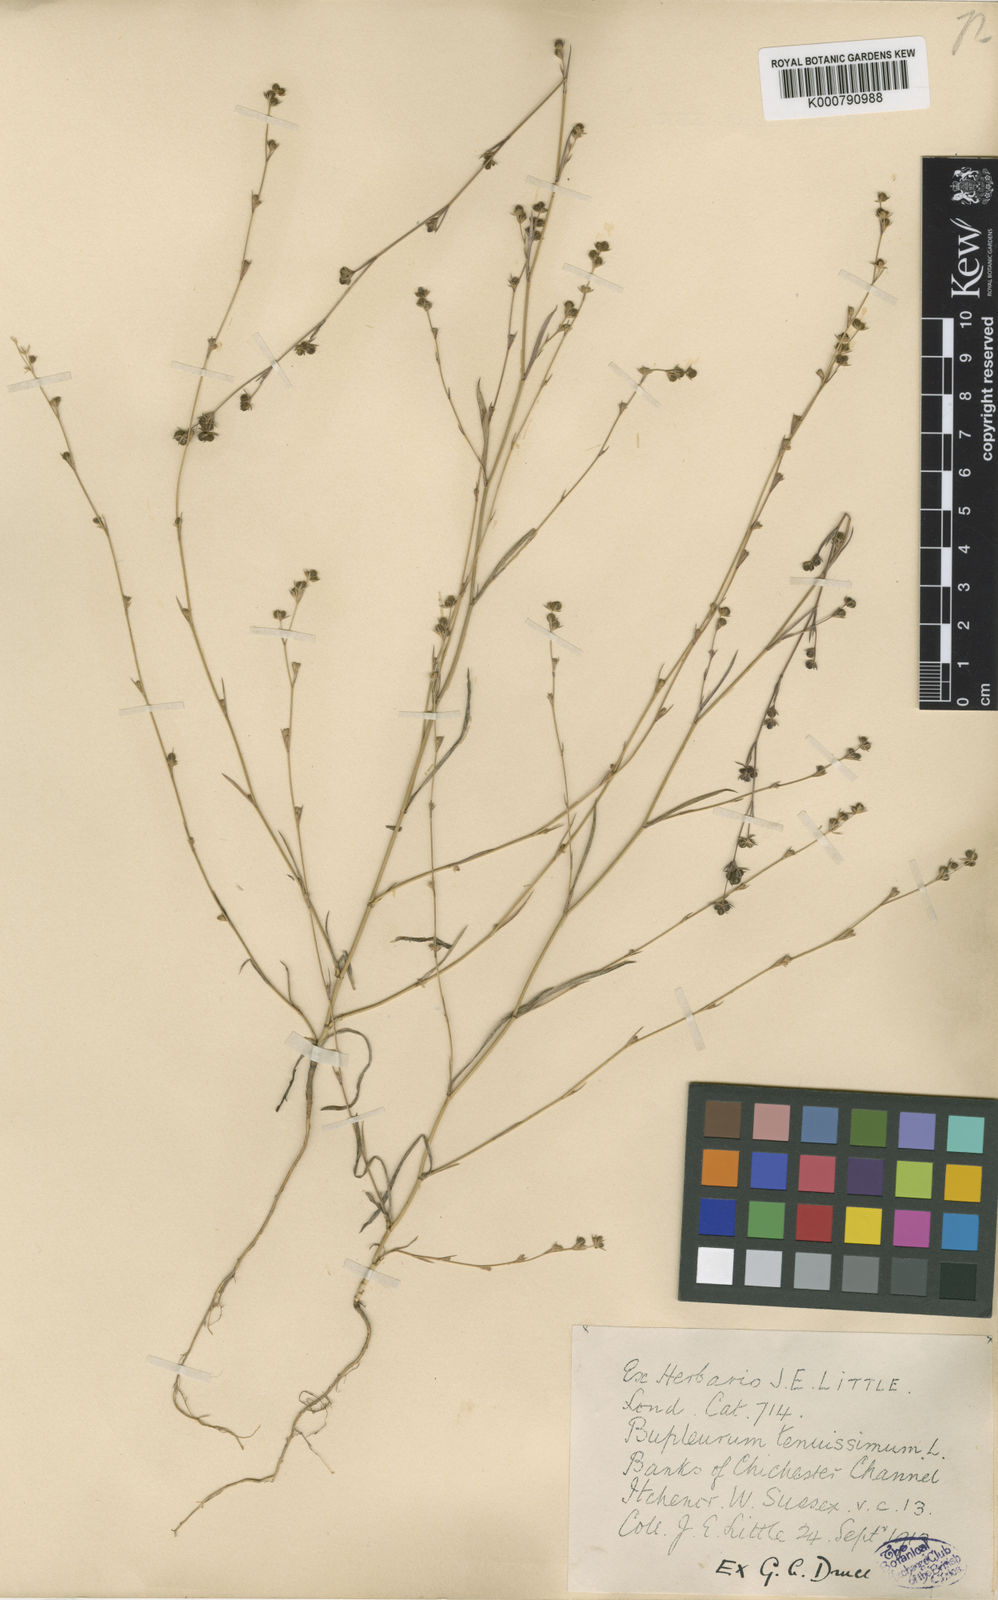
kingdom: Plantae
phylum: Tracheophyta
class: Magnoliopsida
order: Apiales
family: Apiaceae
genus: Bupleurum
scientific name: Bupleurum tenuissimum
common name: Slender hare's-ear
